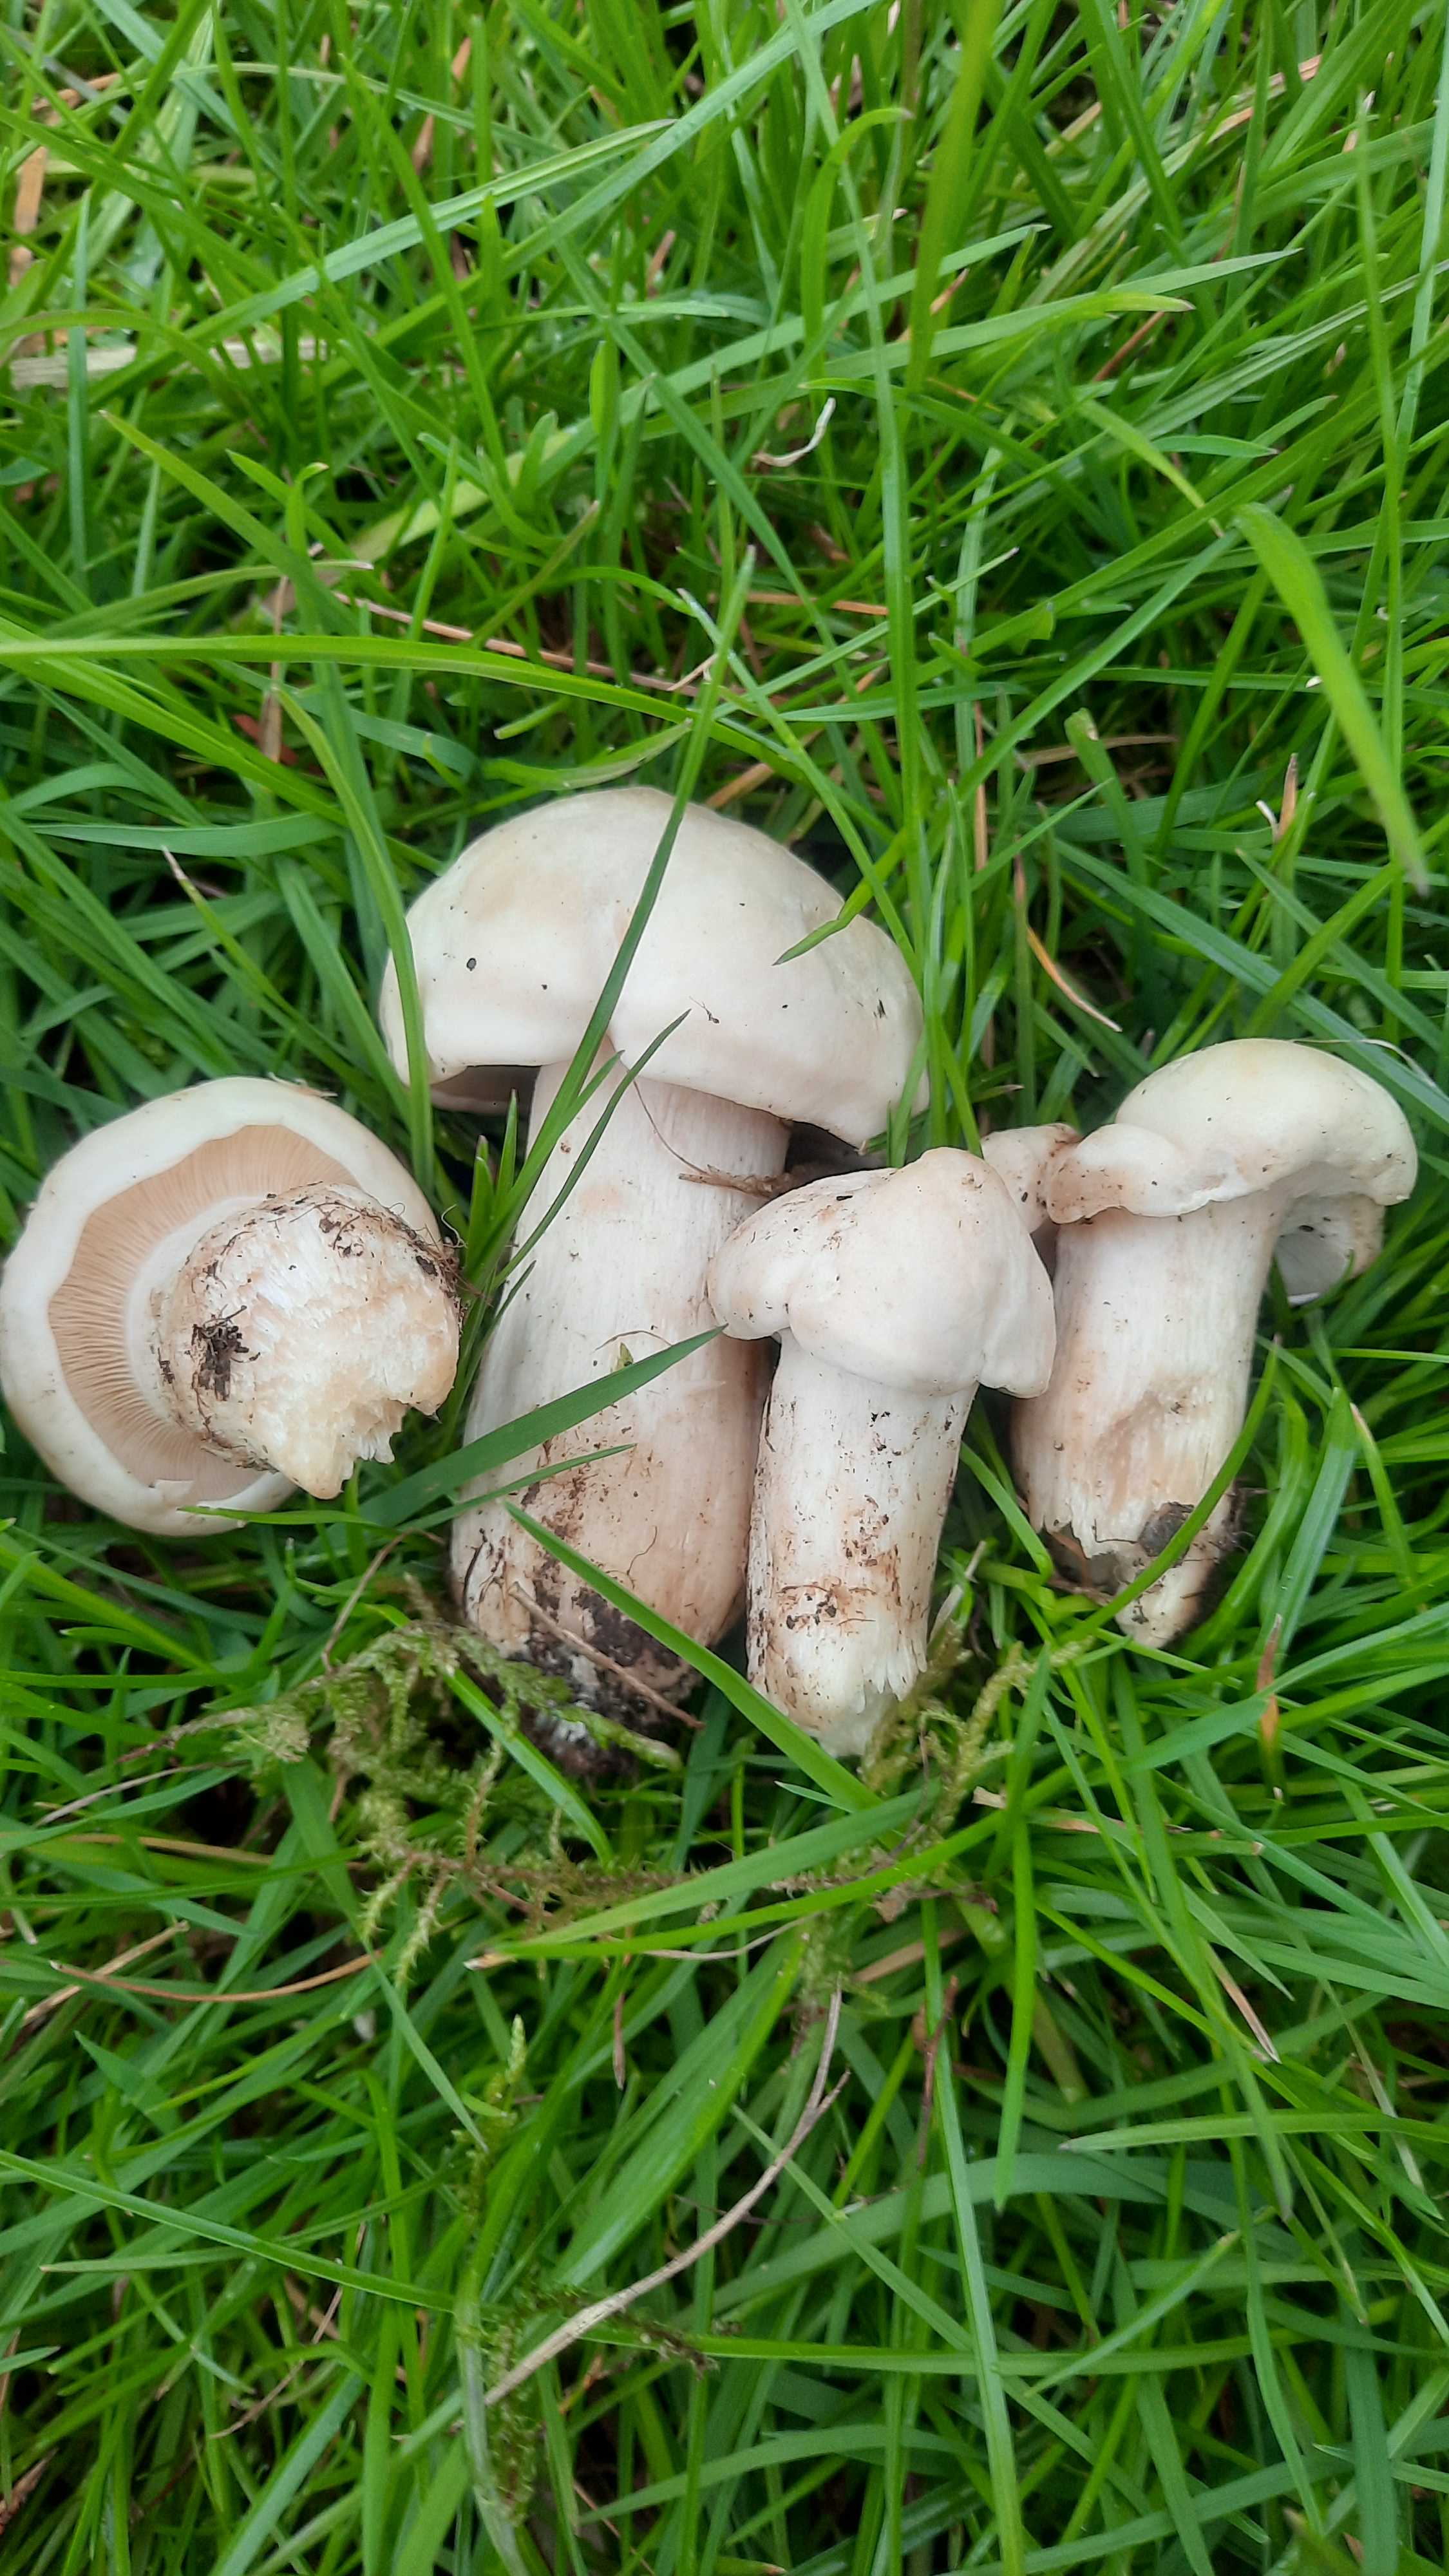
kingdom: Fungi
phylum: Basidiomycota
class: Agaricomycetes
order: Agaricales
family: Lyophyllaceae
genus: Calocybe
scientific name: Calocybe gambosa
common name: vårmusseron
